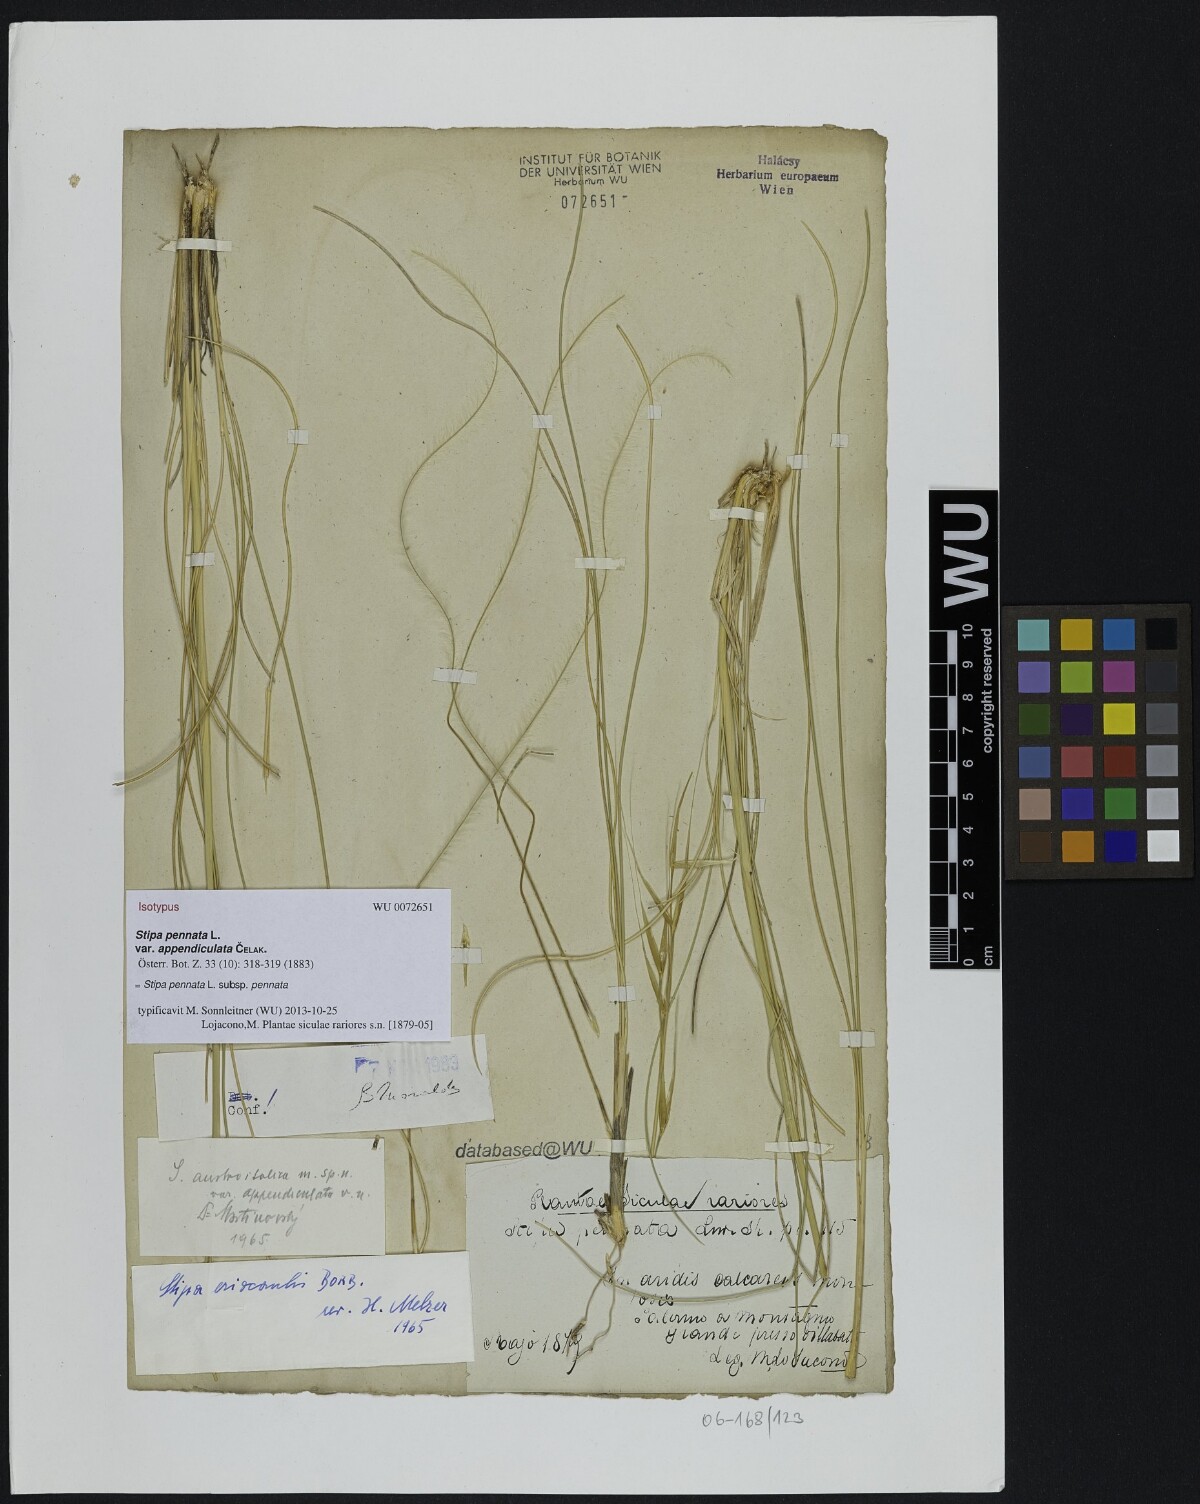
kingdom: Plantae
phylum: Tracheophyta
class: Liliopsida
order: Poales
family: Poaceae
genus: Stipa
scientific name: Stipa pennata
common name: European feather grass
